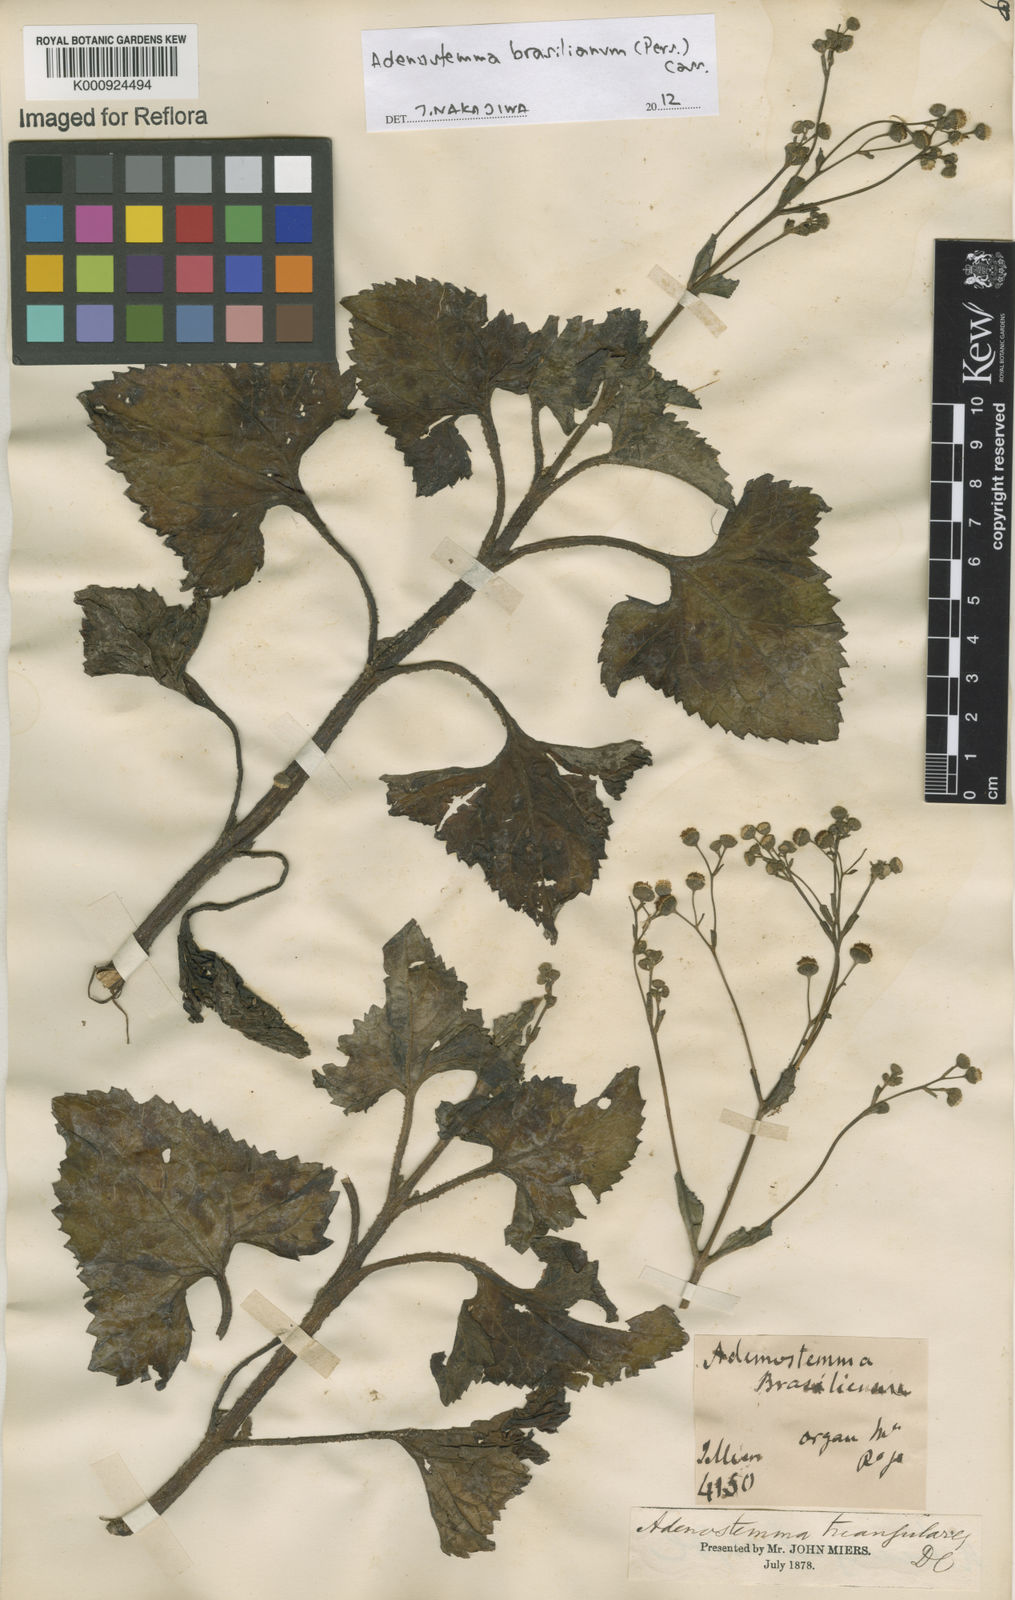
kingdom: Plantae
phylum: Tracheophyta
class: Magnoliopsida
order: Asterales
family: Asteraceae
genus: Adenostemma
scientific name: Adenostemma
